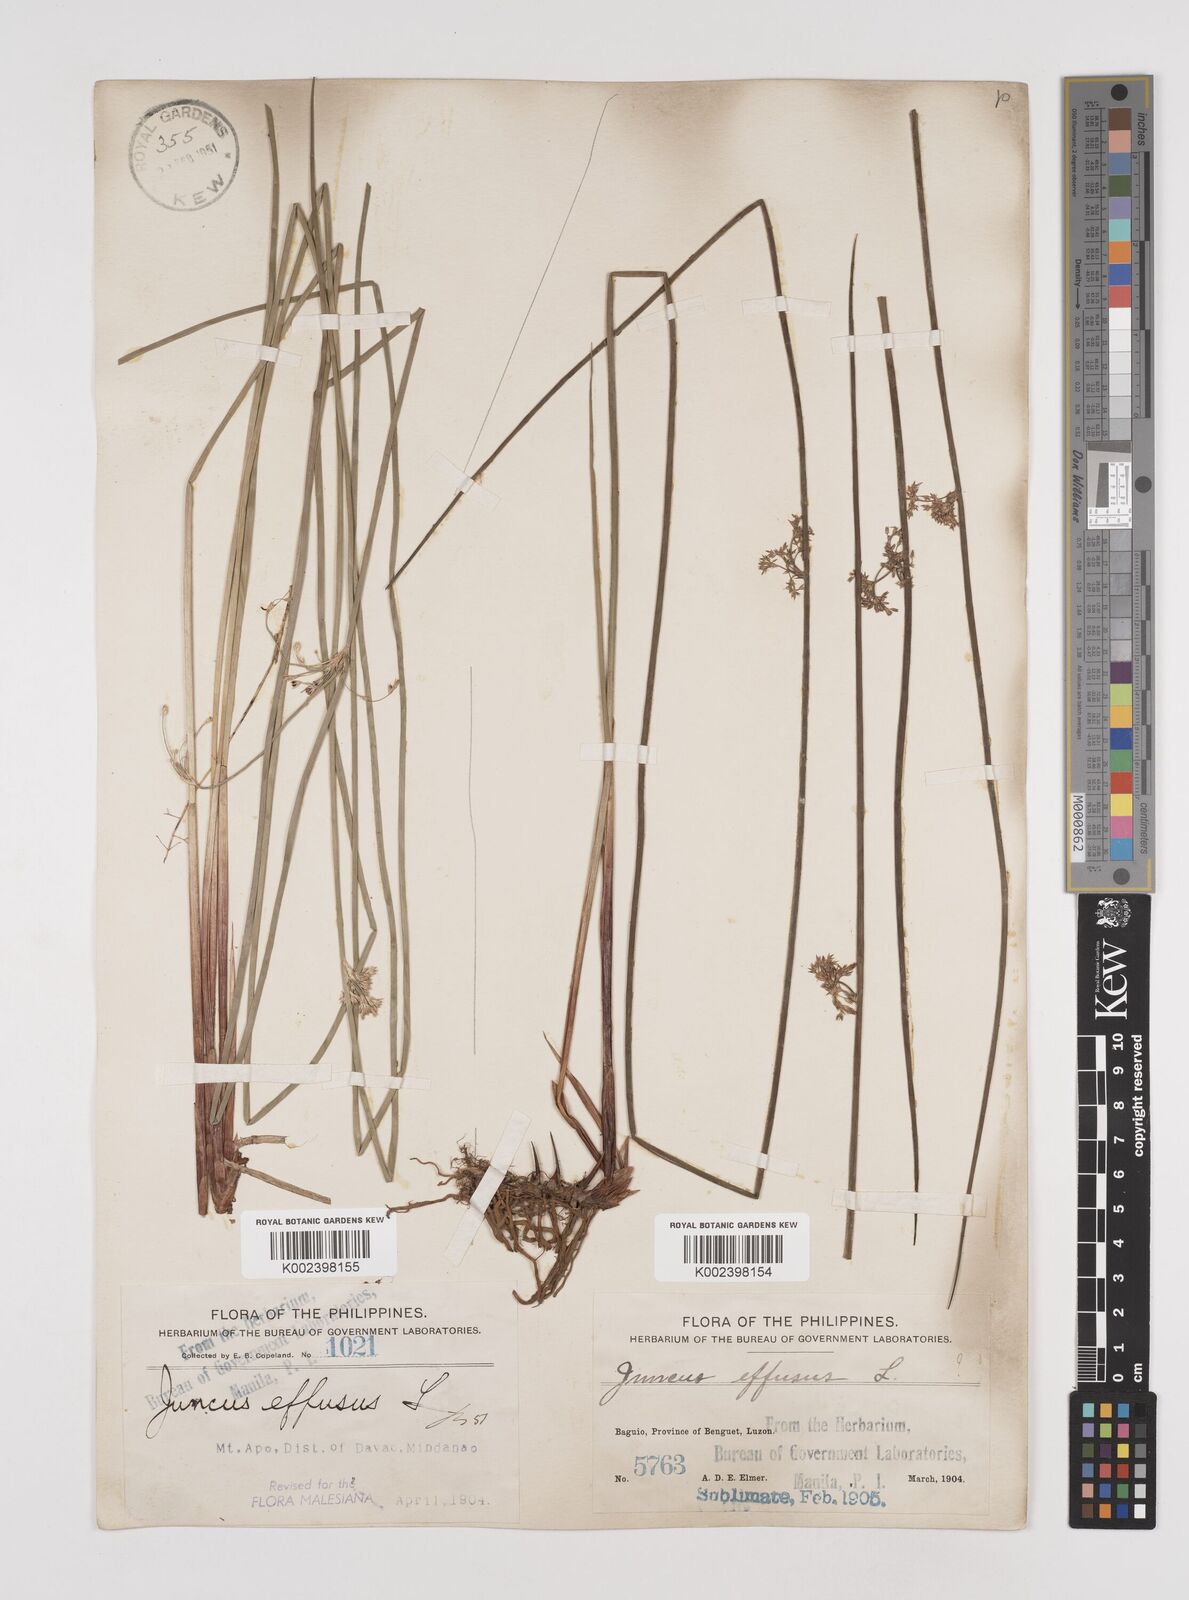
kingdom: Plantae
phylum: Tracheophyta
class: Liliopsida
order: Poales
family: Juncaceae
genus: Juncus
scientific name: Juncus decipiens
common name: Lamp rush
